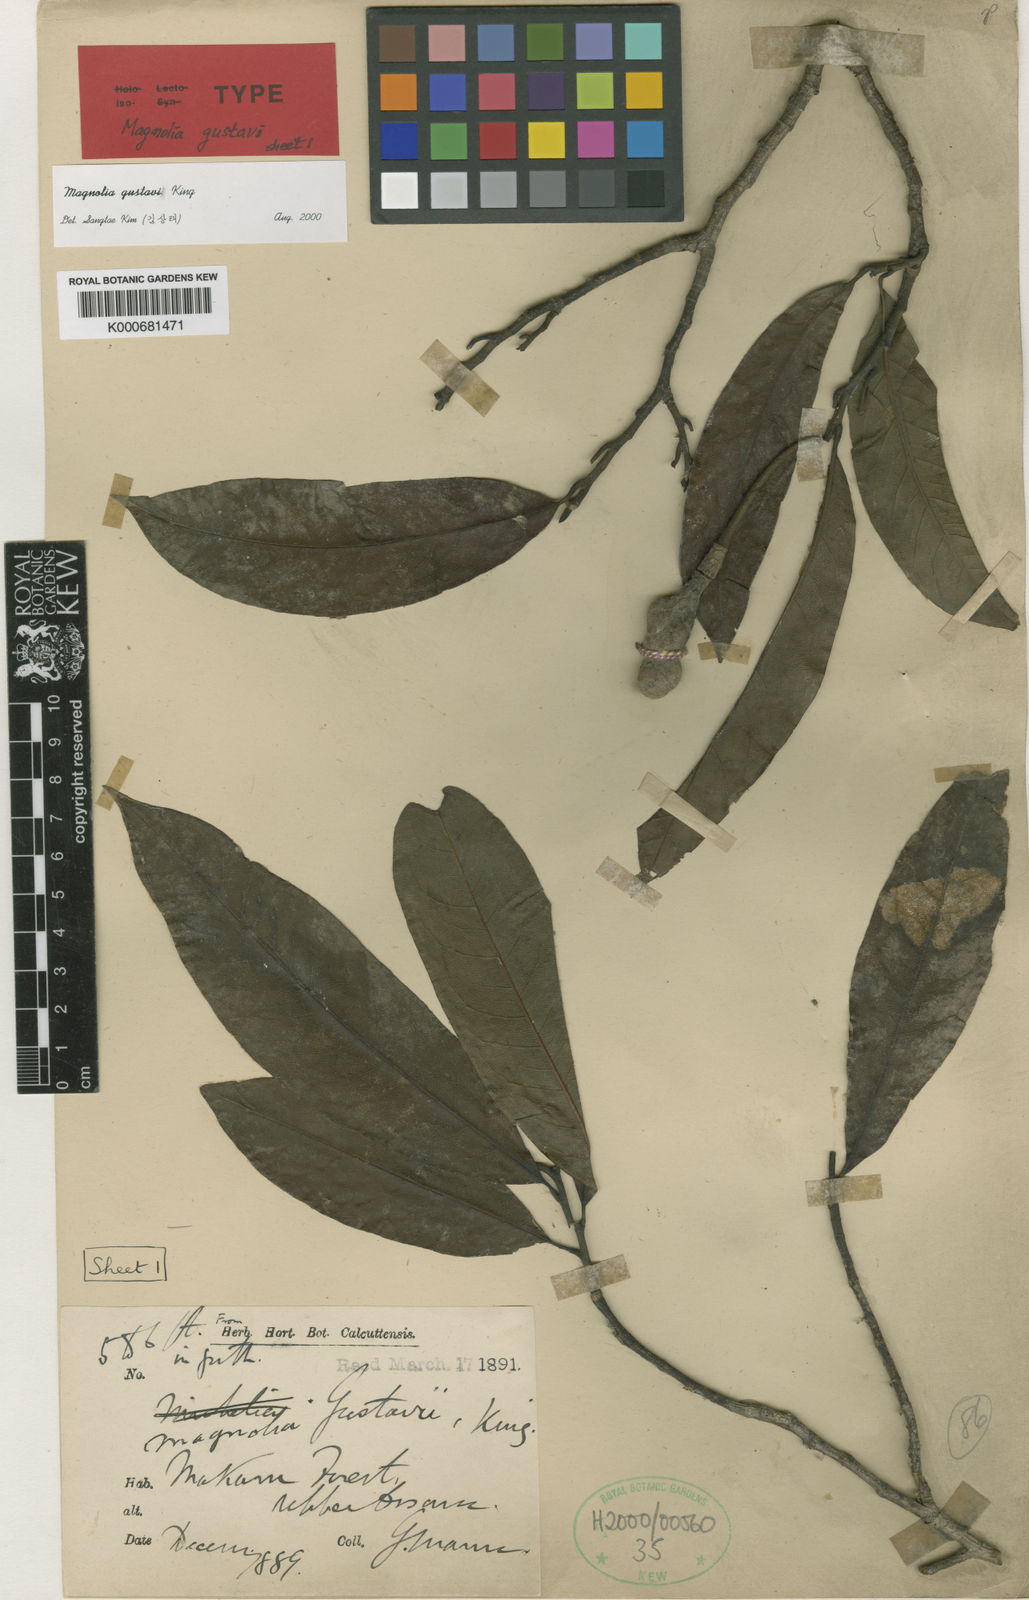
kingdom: Plantae
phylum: Tracheophyta
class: Magnoliopsida
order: Magnoliales
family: Magnoliaceae
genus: Magnolia
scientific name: Magnolia gustavi
